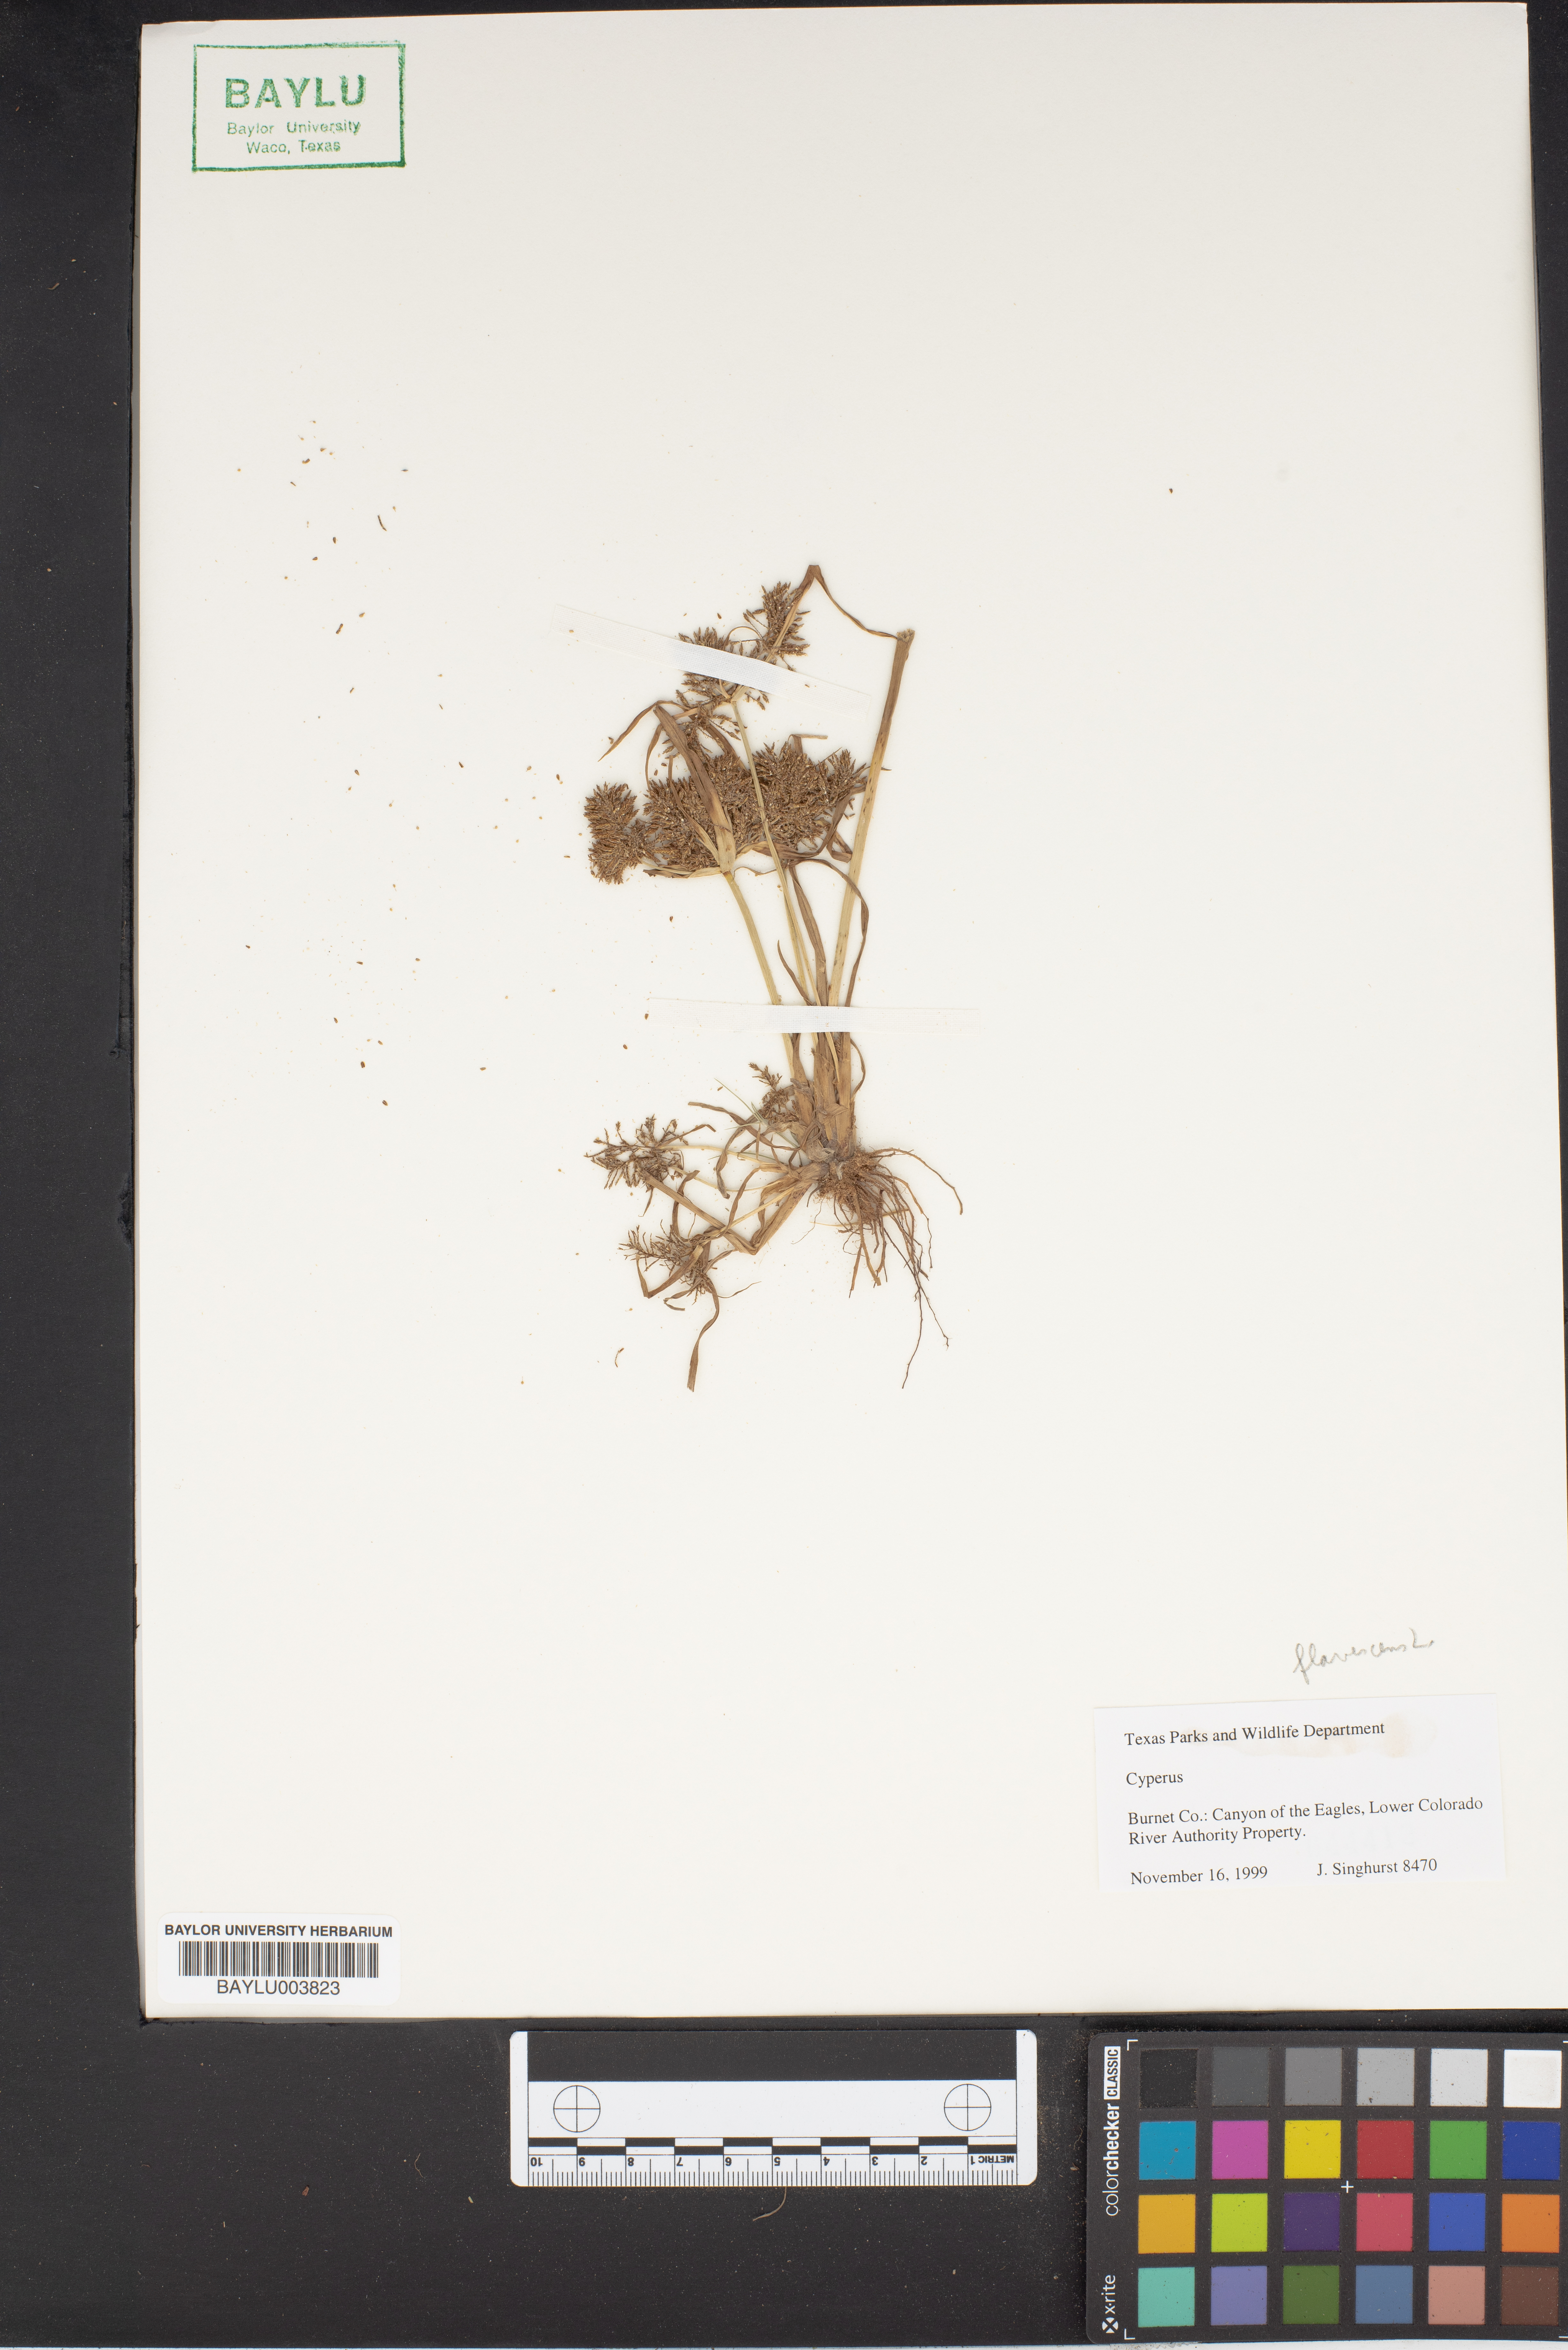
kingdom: Plantae
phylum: Tracheophyta
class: Liliopsida
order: Poales
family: Cyperaceae
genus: Cyperus
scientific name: Cyperus
